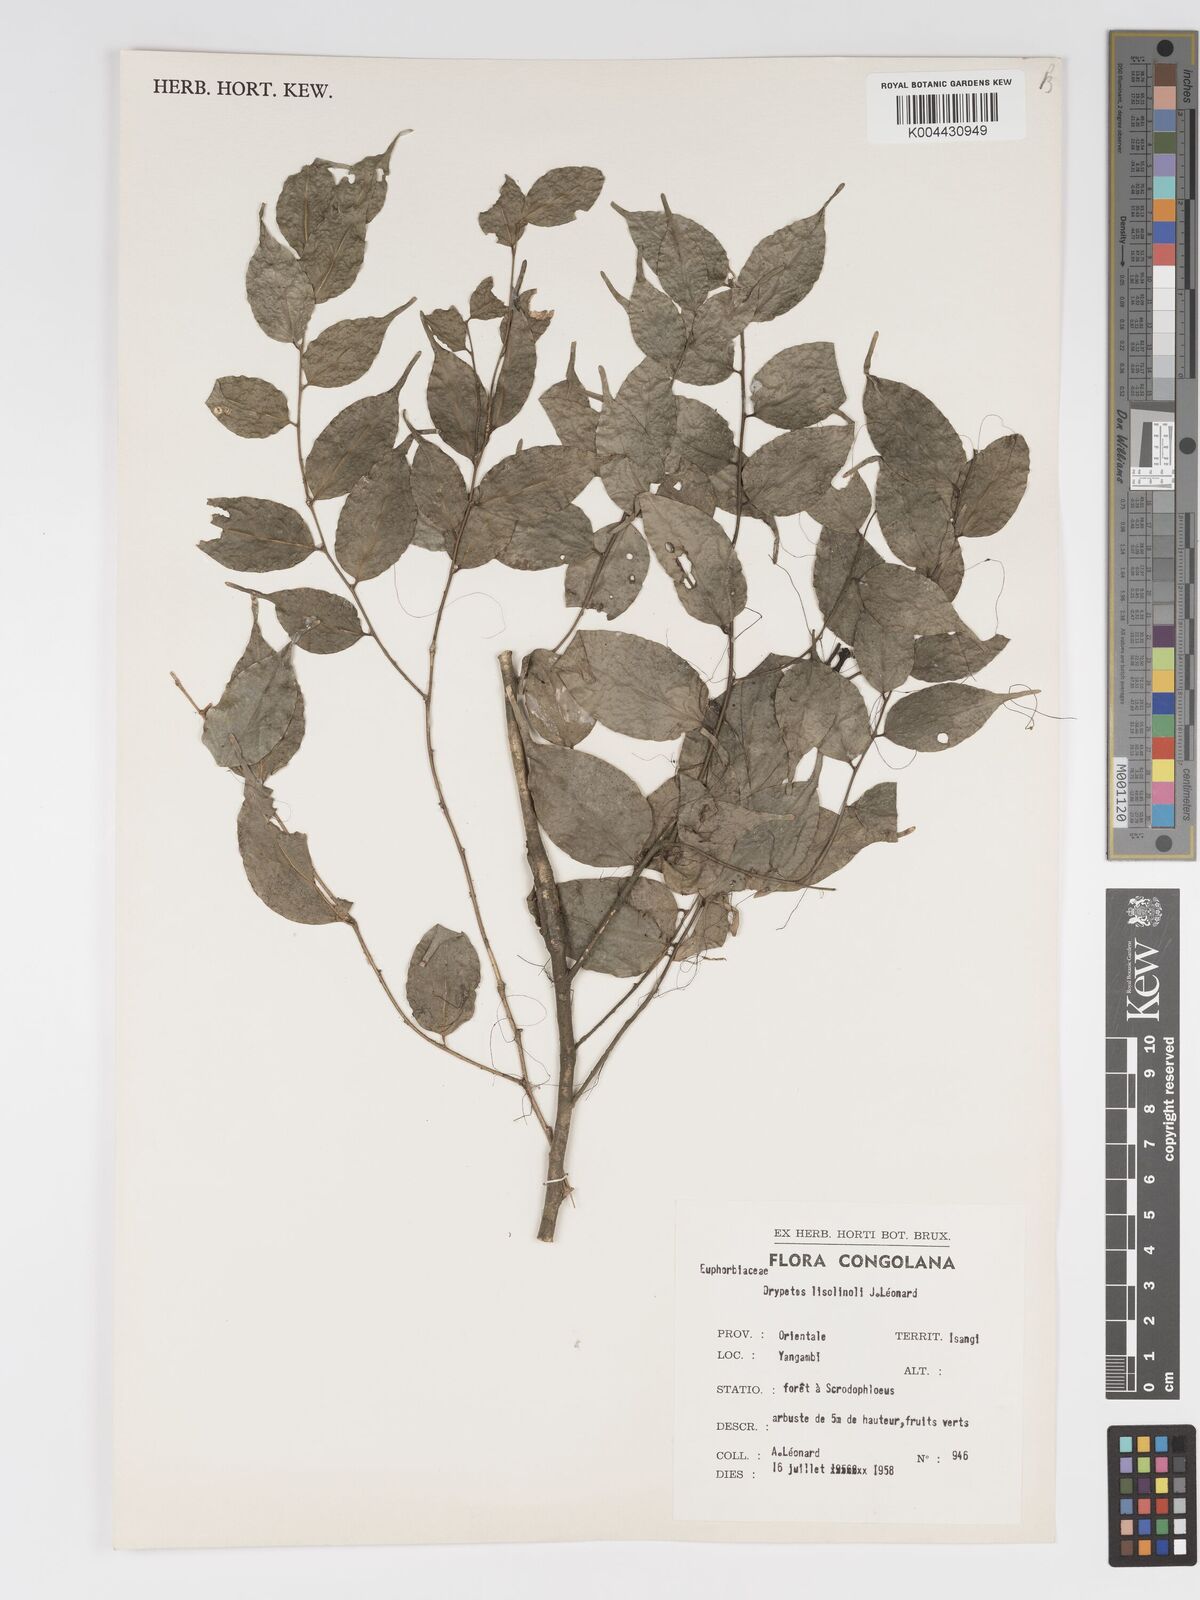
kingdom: Plantae
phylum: Tracheophyta
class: Magnoliopsida
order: Malpighiales
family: Putranjivaceae
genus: Drypetes
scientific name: Drypetes
